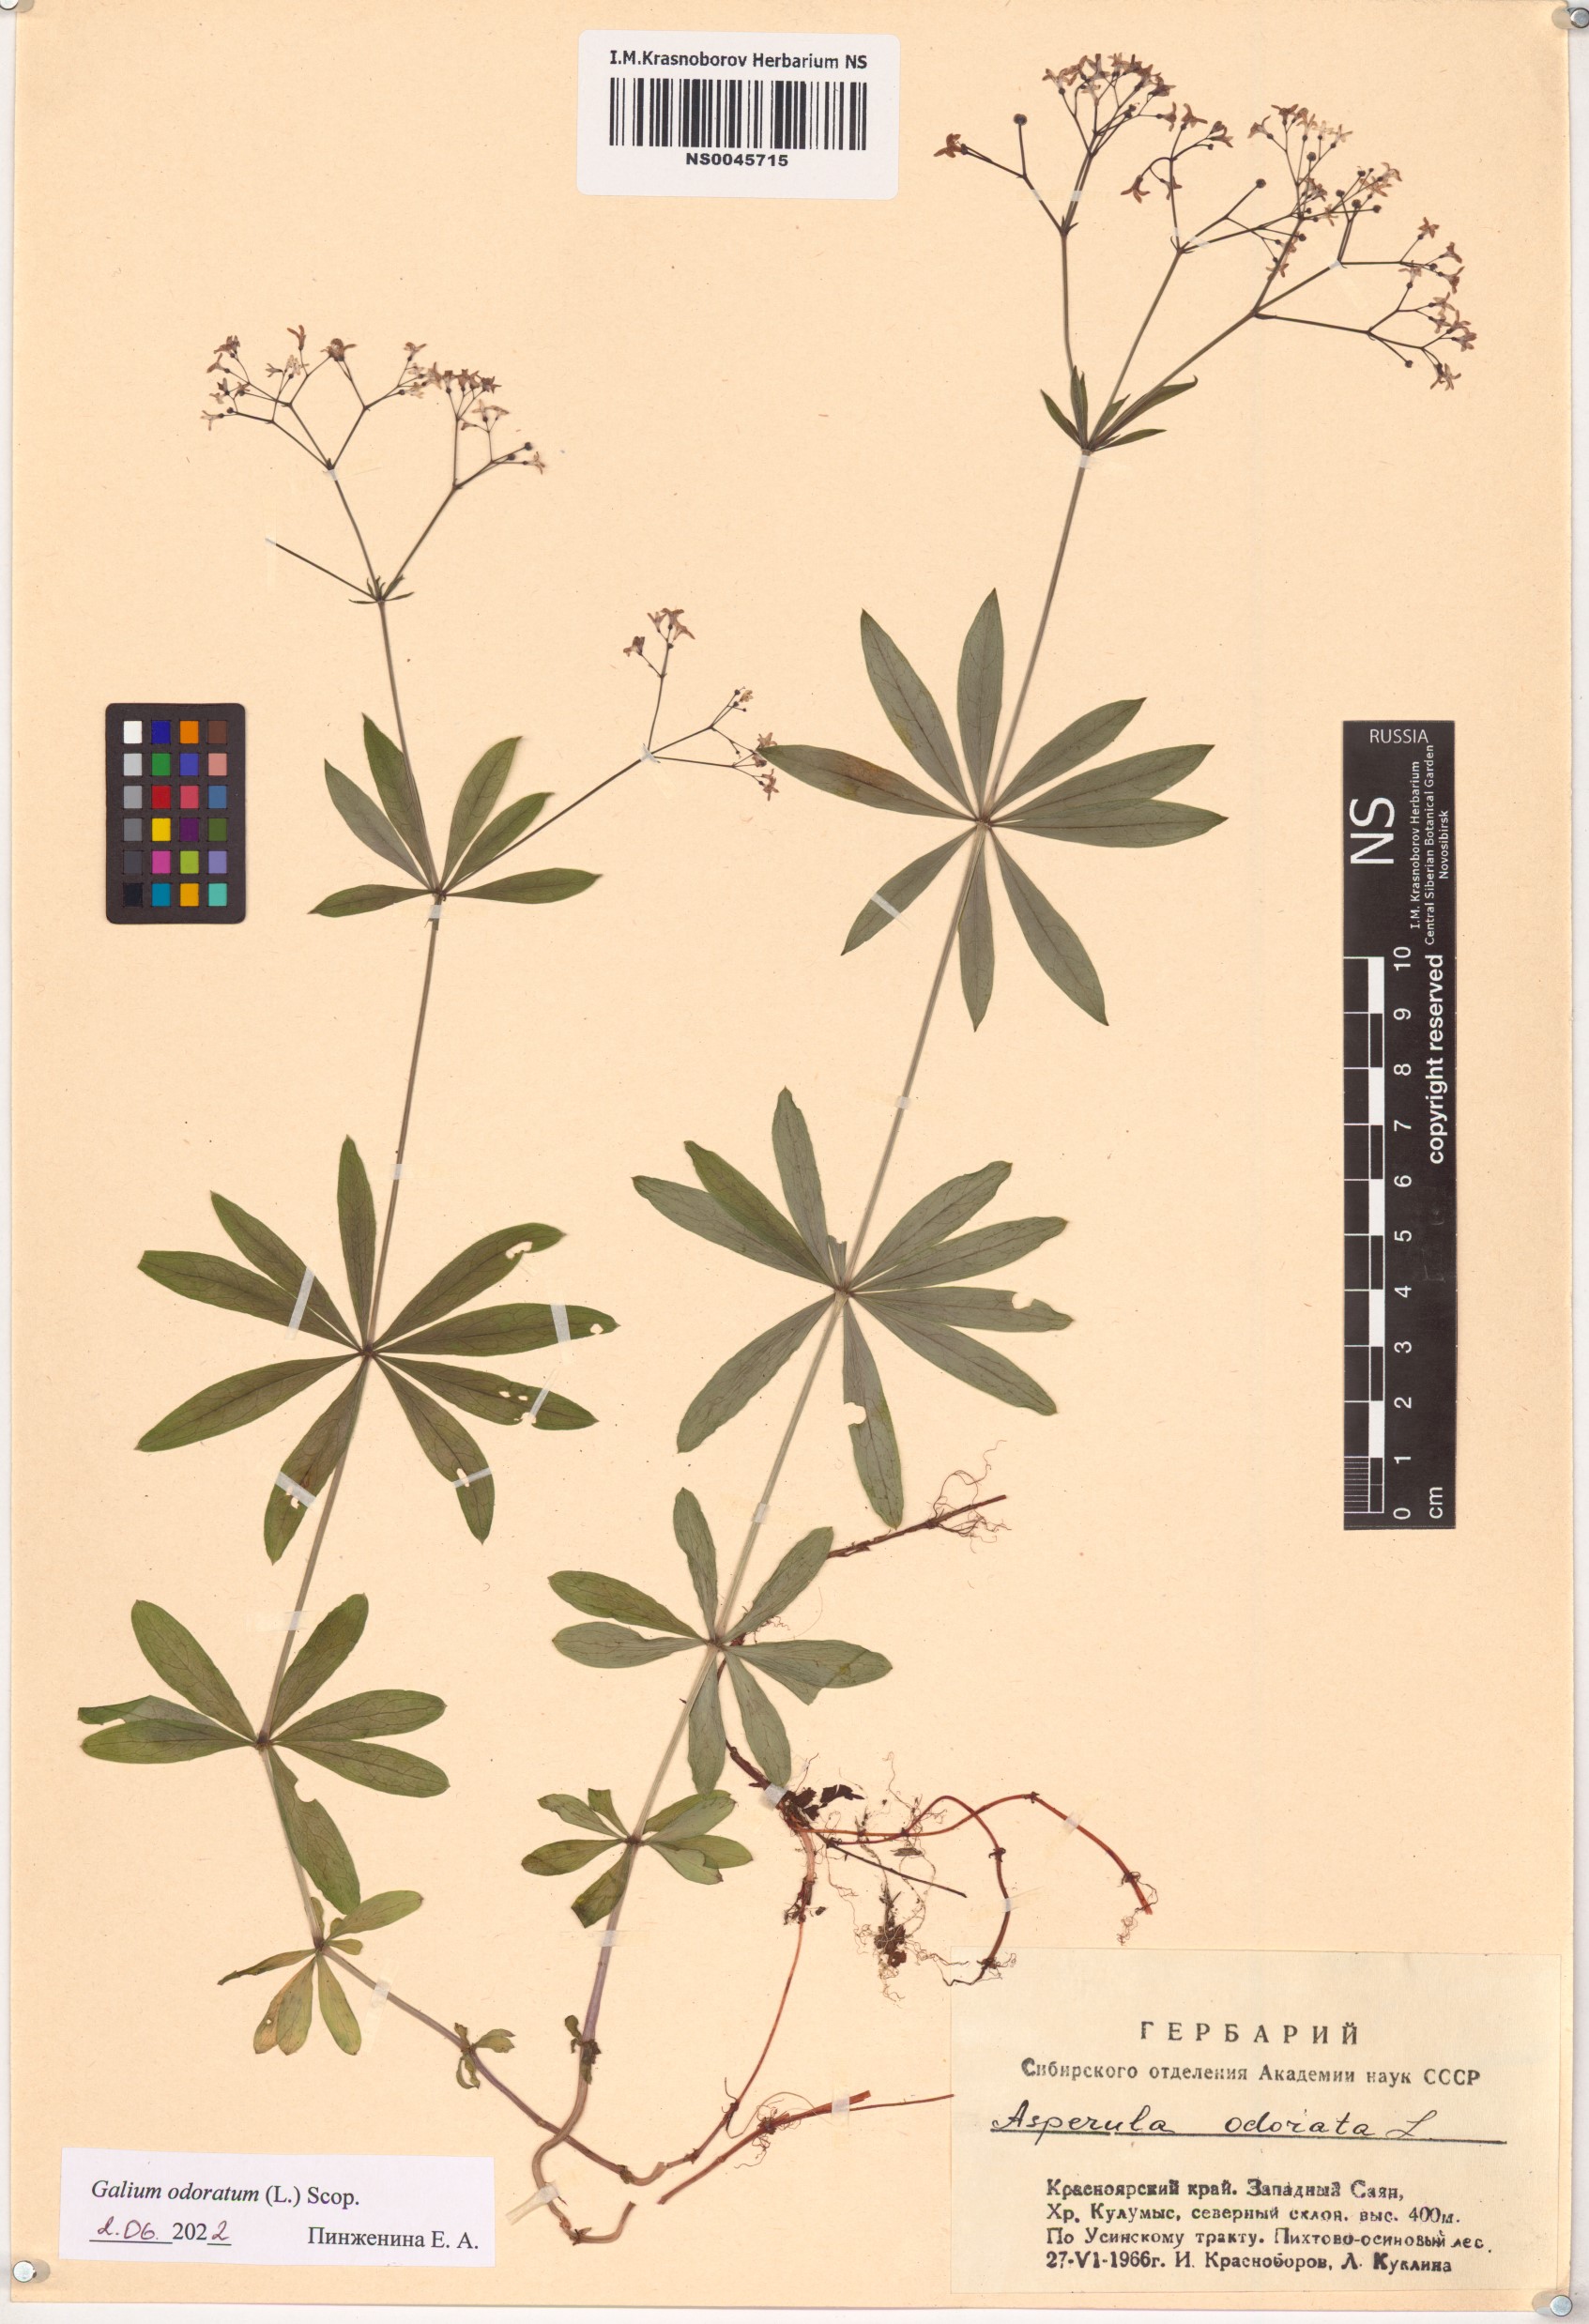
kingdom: Plantae
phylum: Tracheophyta
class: Magnoliopsida
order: Gentianales
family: Rubiaceae
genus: Galium
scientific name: Galium odoratum
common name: Sweet woodruff
